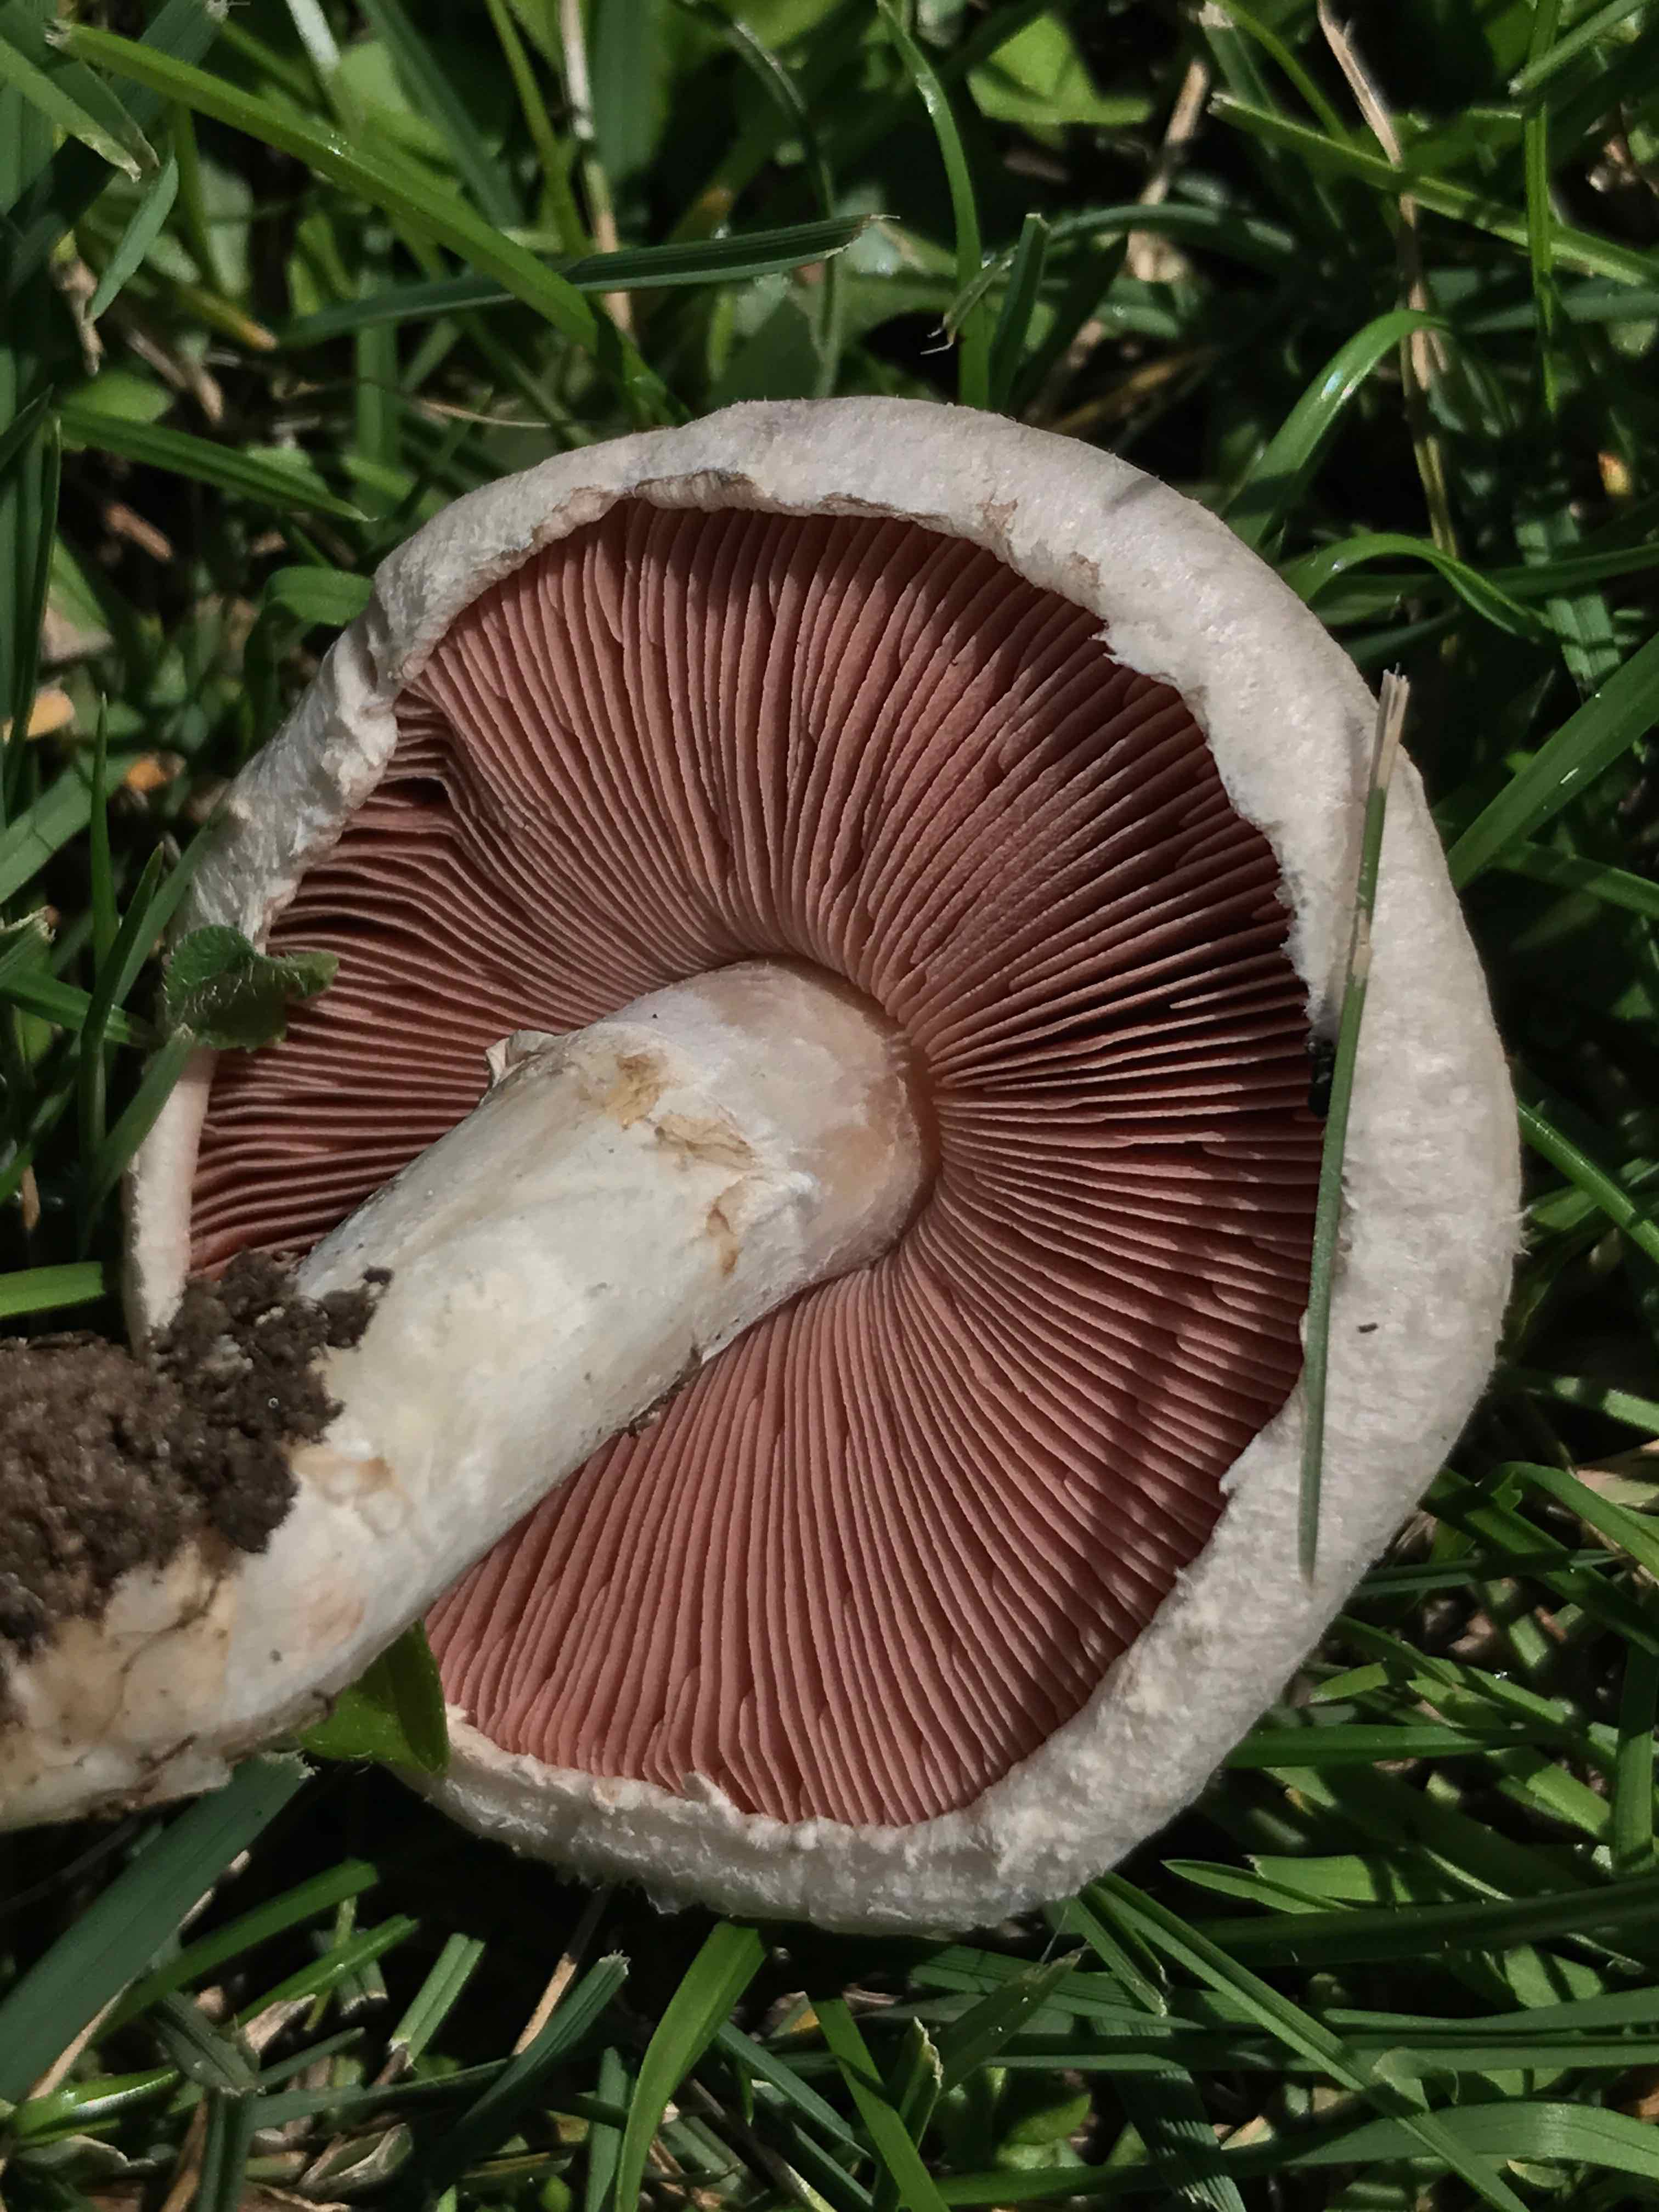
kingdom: Fungi
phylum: Basidiomycota
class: Agaricomycetes
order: Agaricales
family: Agaricaceae
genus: Agaricus
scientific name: Agaricus campestris
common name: mark-champignon
